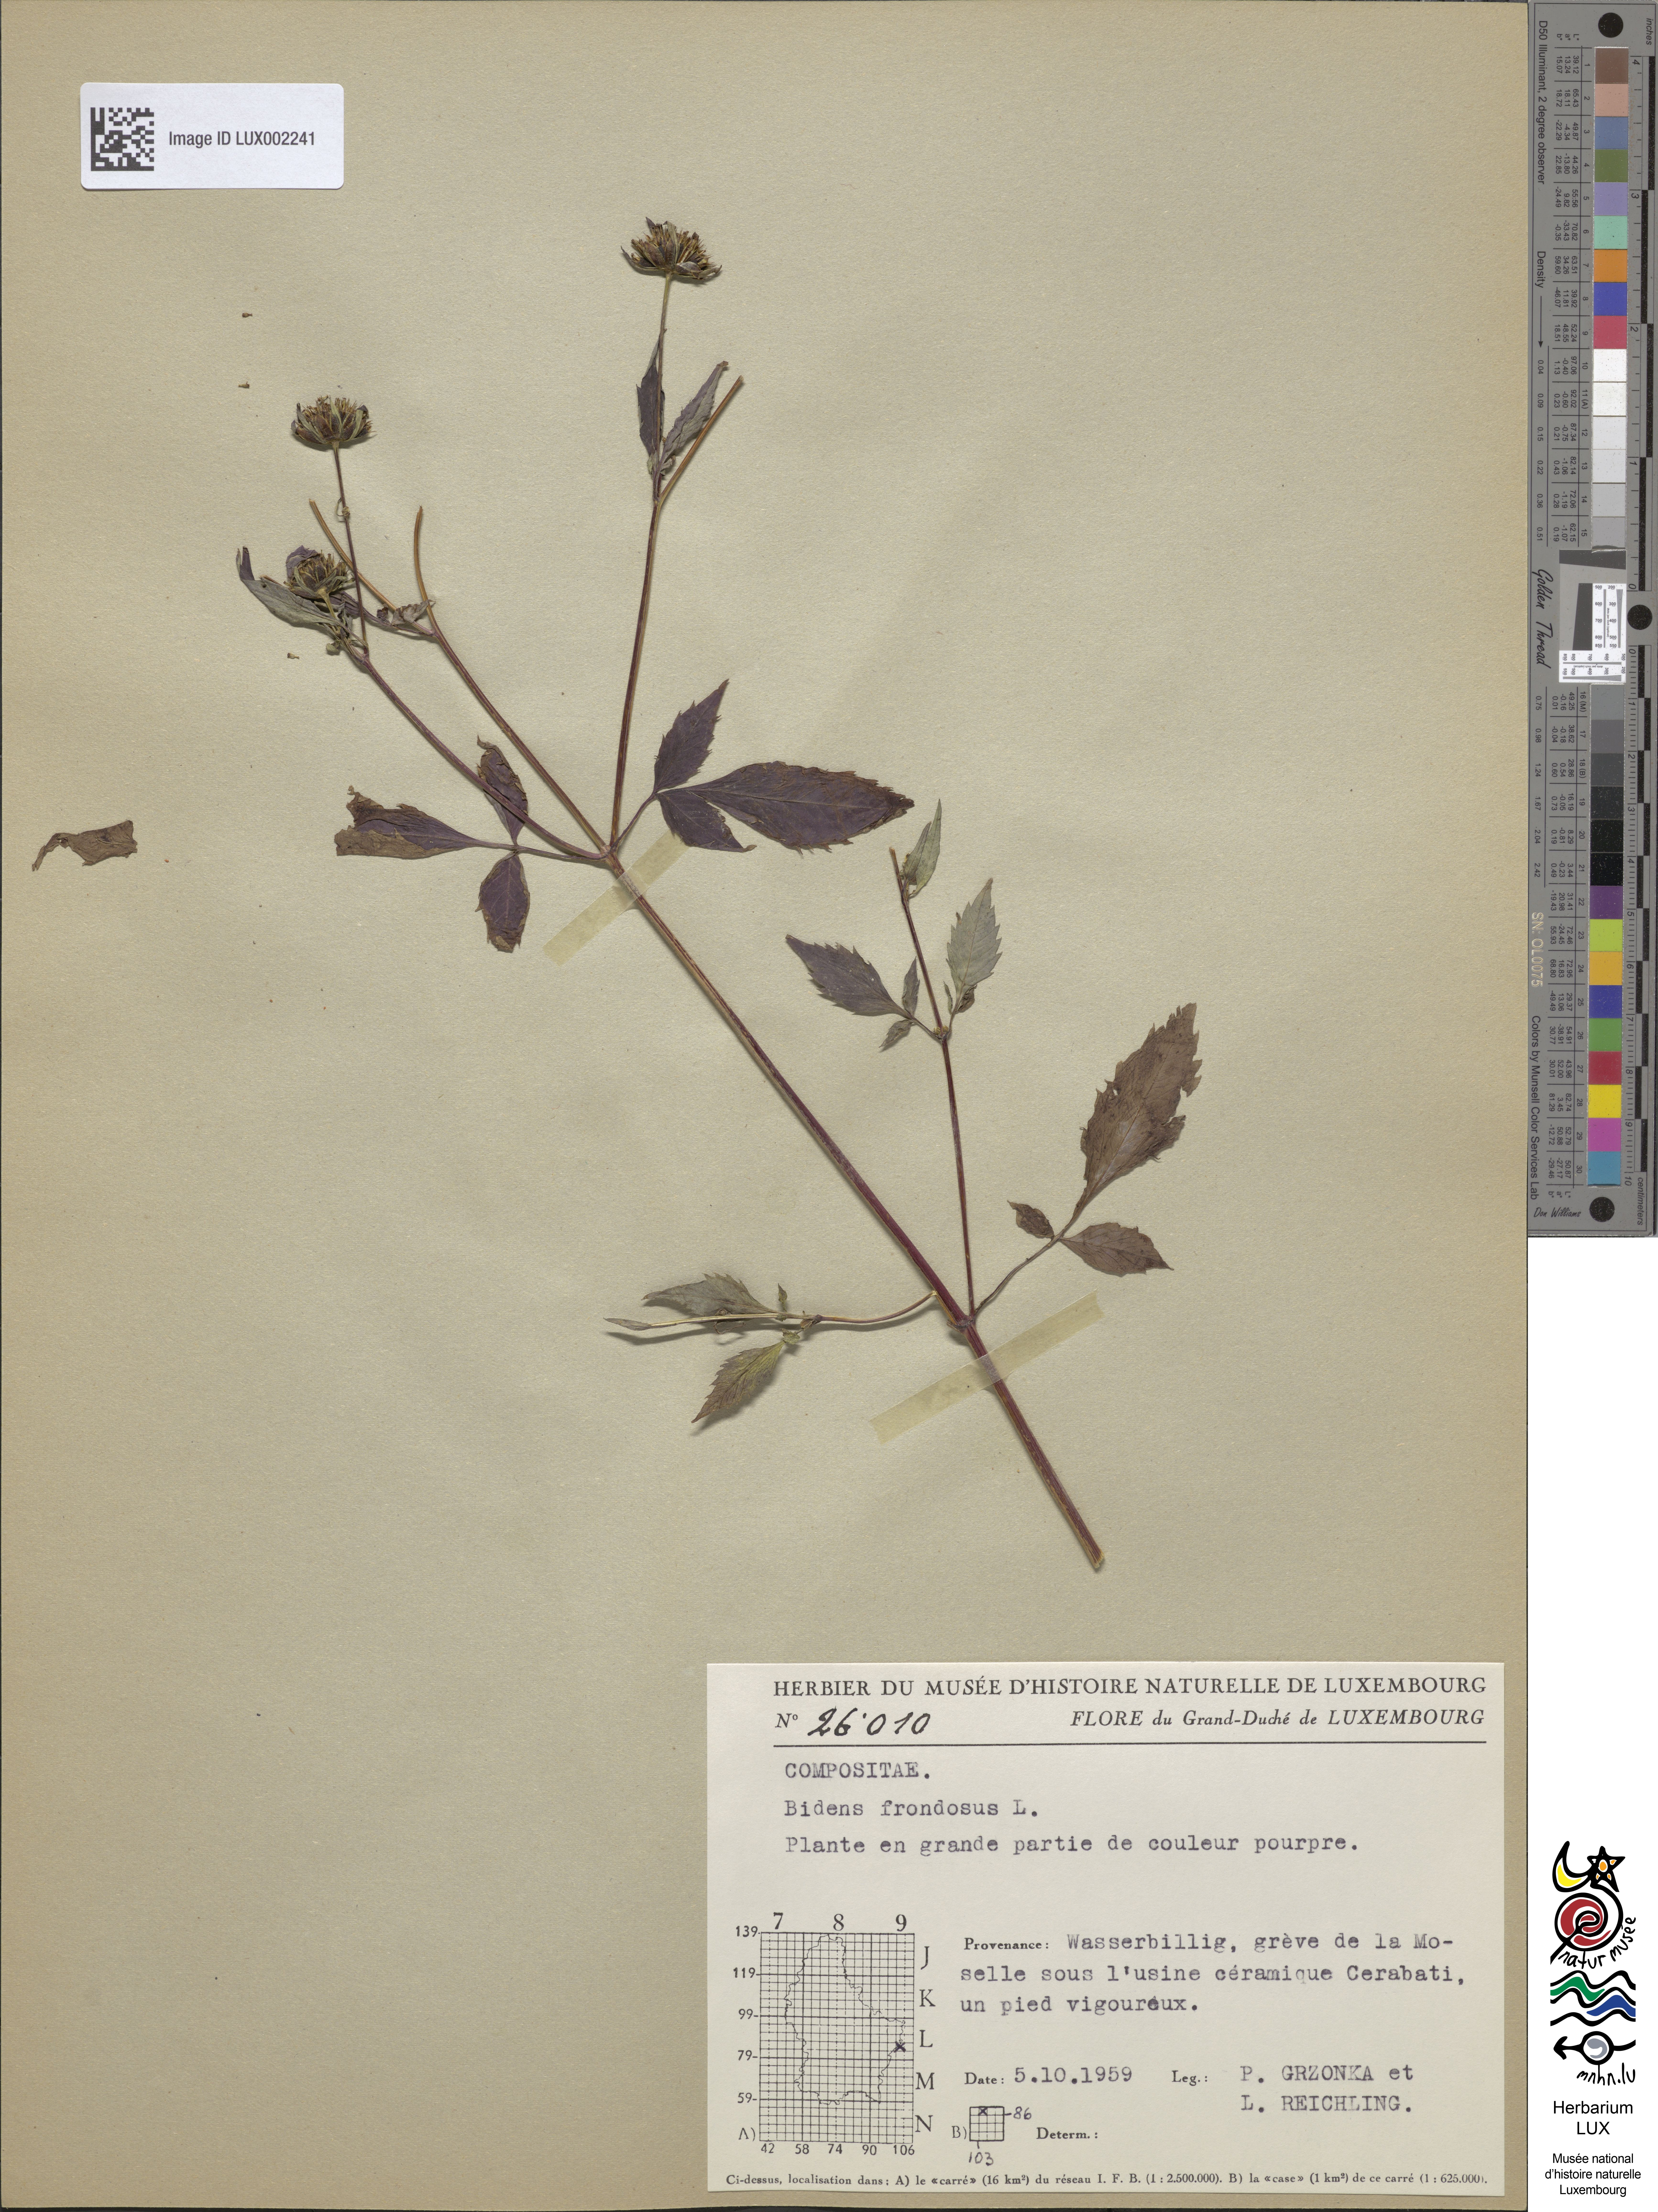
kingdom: Plantae
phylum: Tracheophyta
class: Magnoliopsida
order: Asterales
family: Asteraceae
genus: Bidens
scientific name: Bidens frondosa
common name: Beggarticks
